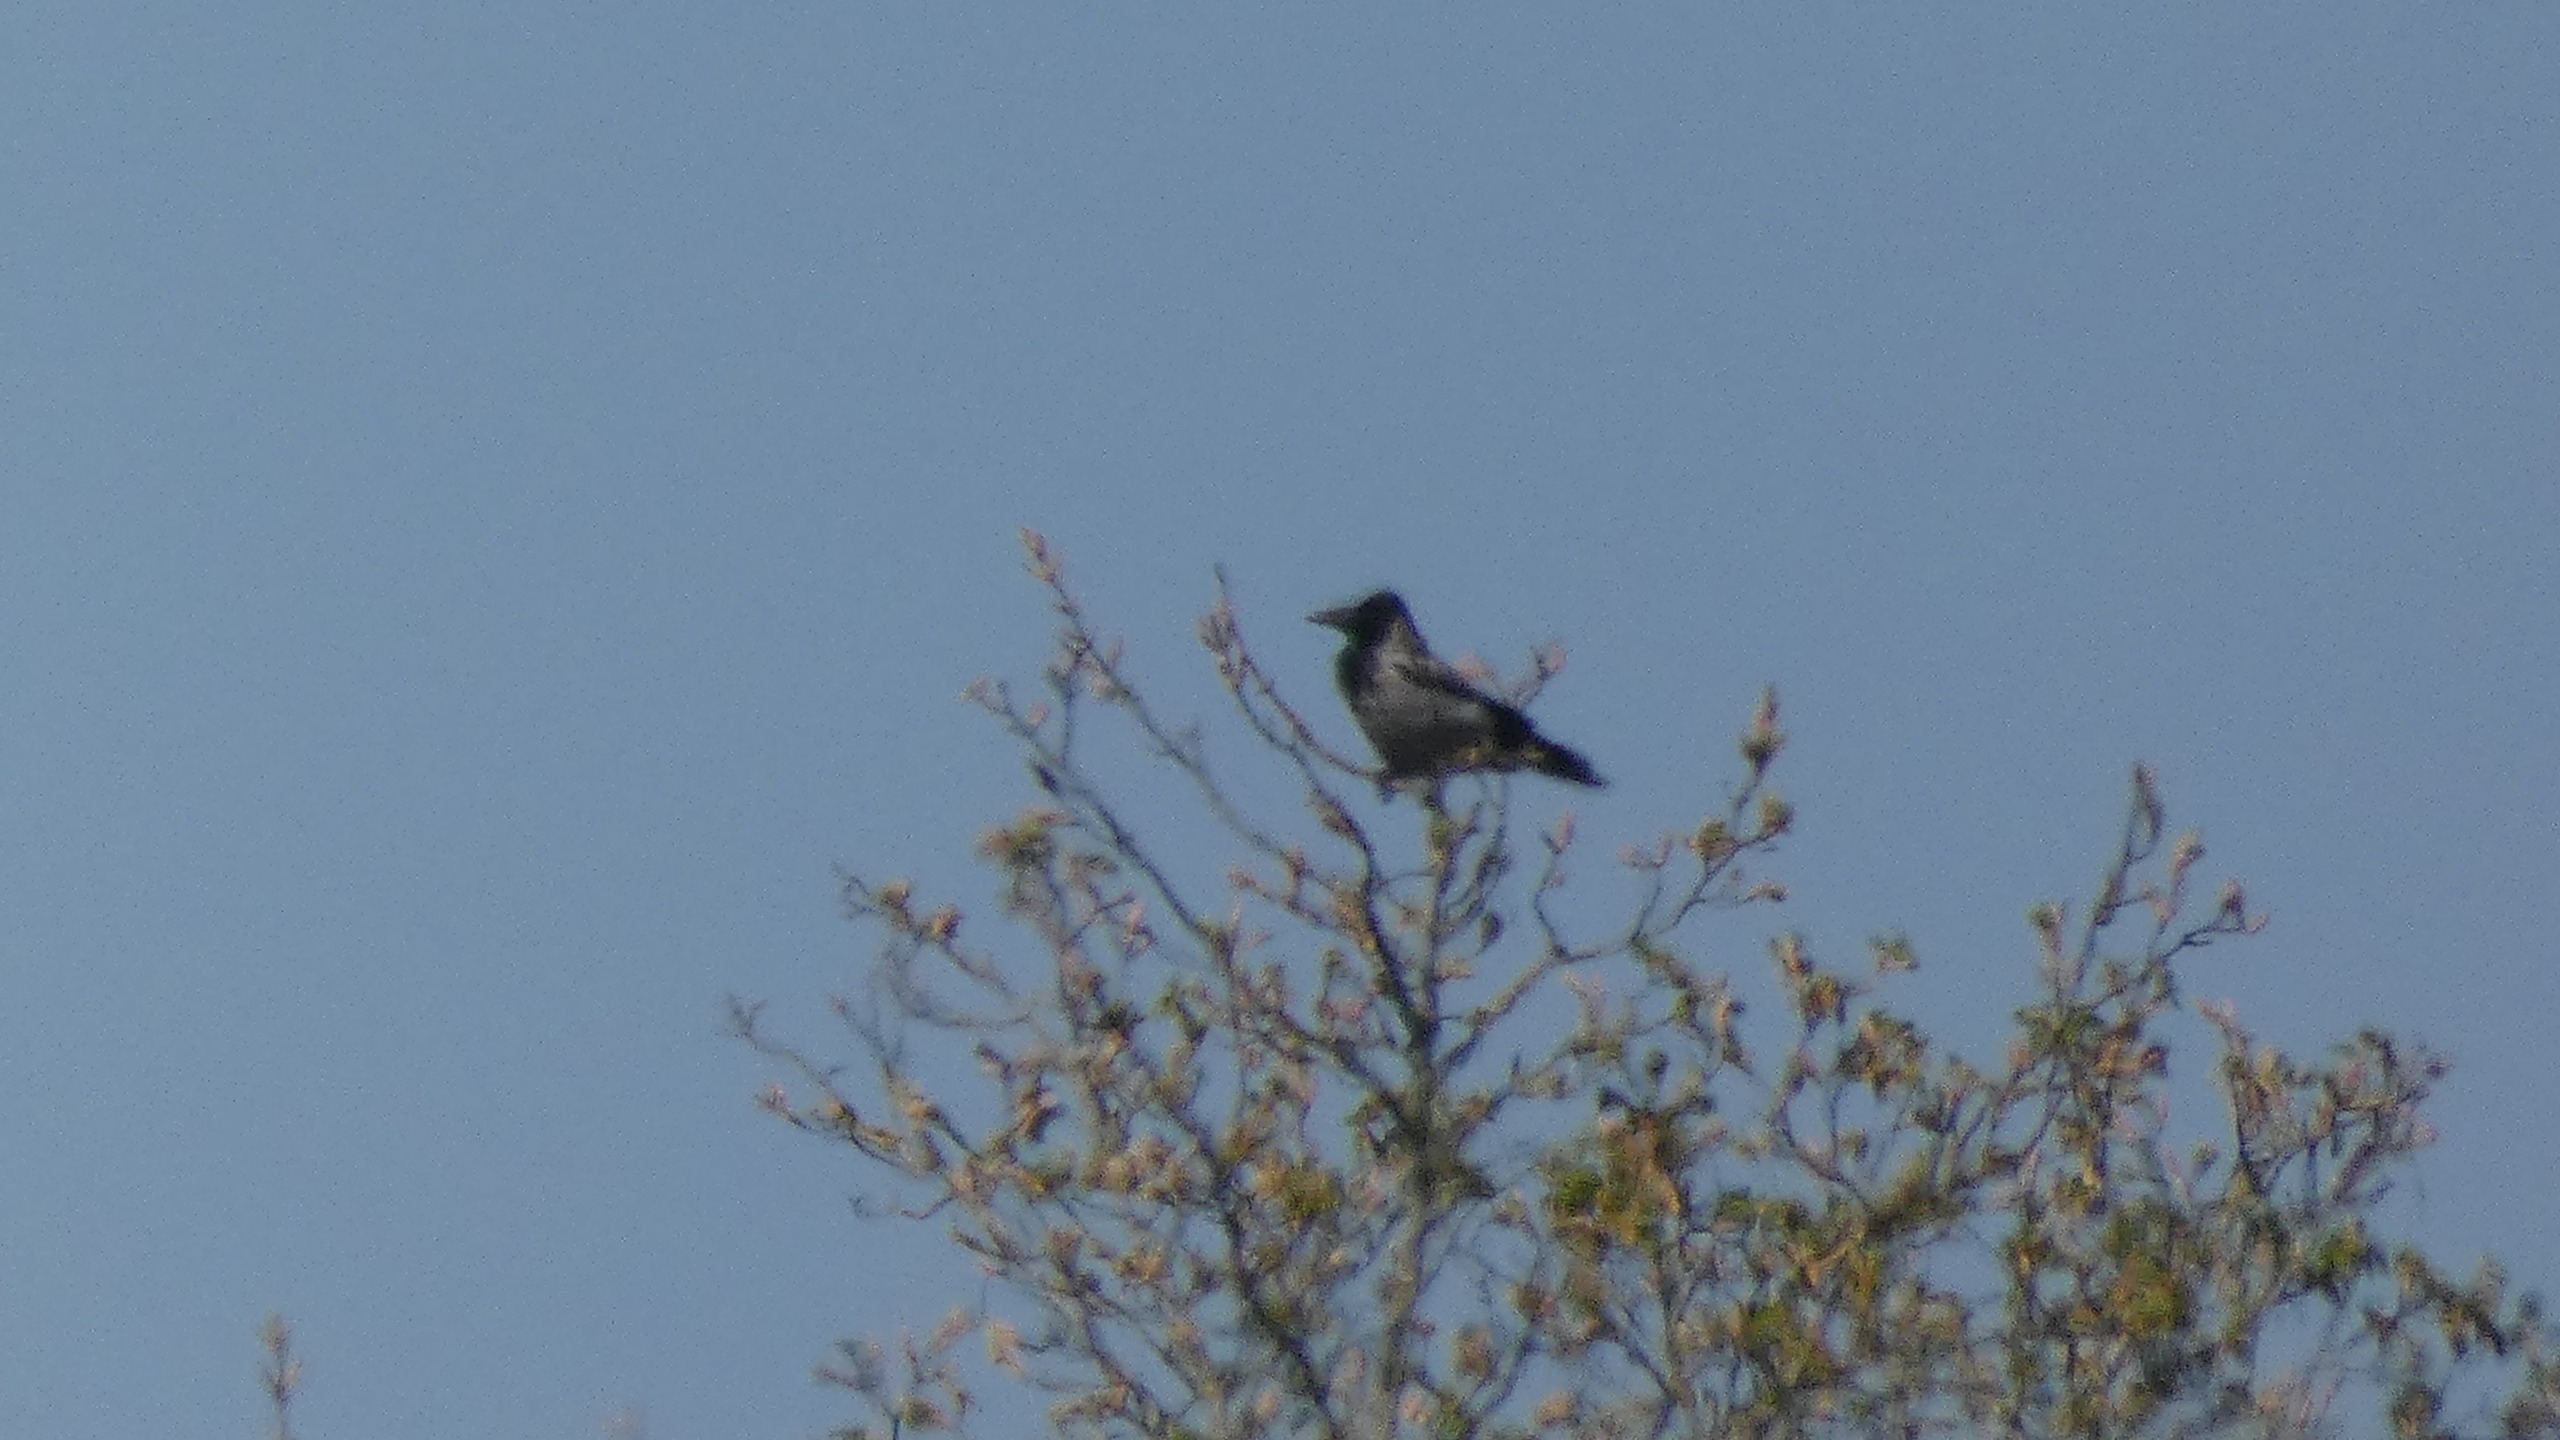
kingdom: Animalia
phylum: Chordata
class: Aves
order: Passeriformes
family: Corvidae
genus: Corvus
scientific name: Corvus cornix
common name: Gråkrage
